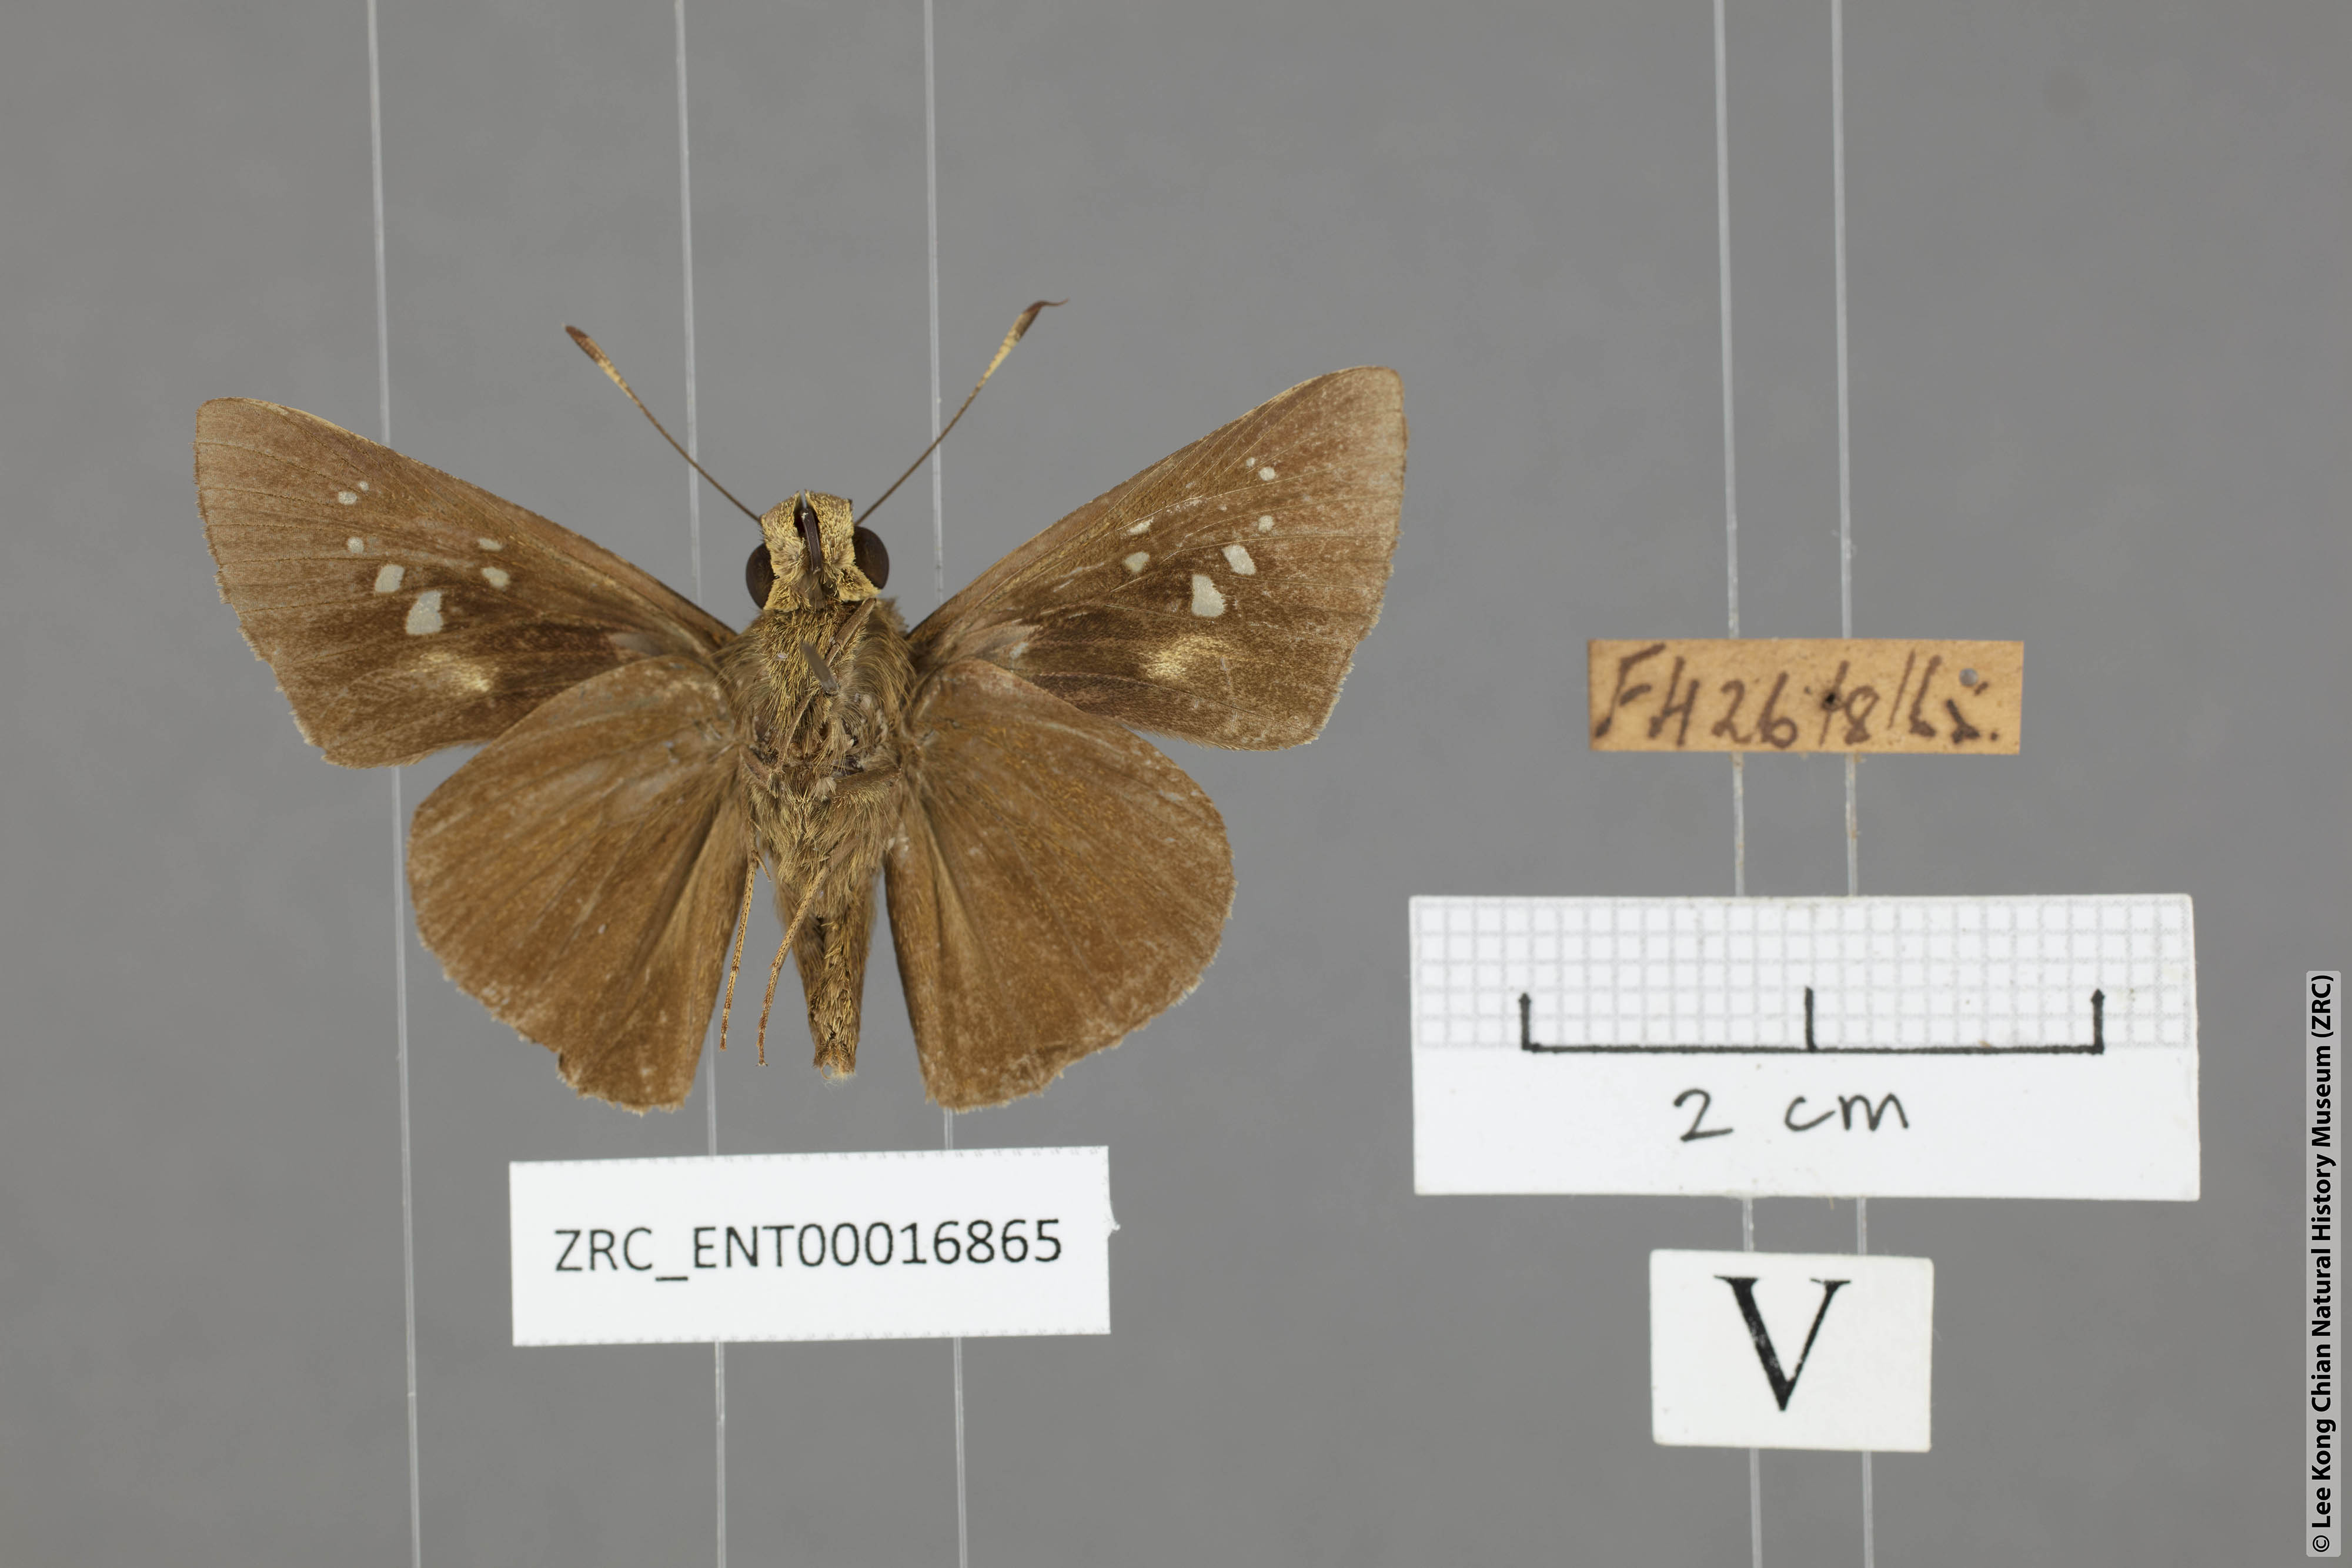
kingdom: Animalia
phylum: Arthropoda
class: Insecta
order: Lepidoptera
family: Hesperiidae
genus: Caltoris
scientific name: Caltoris sirius
